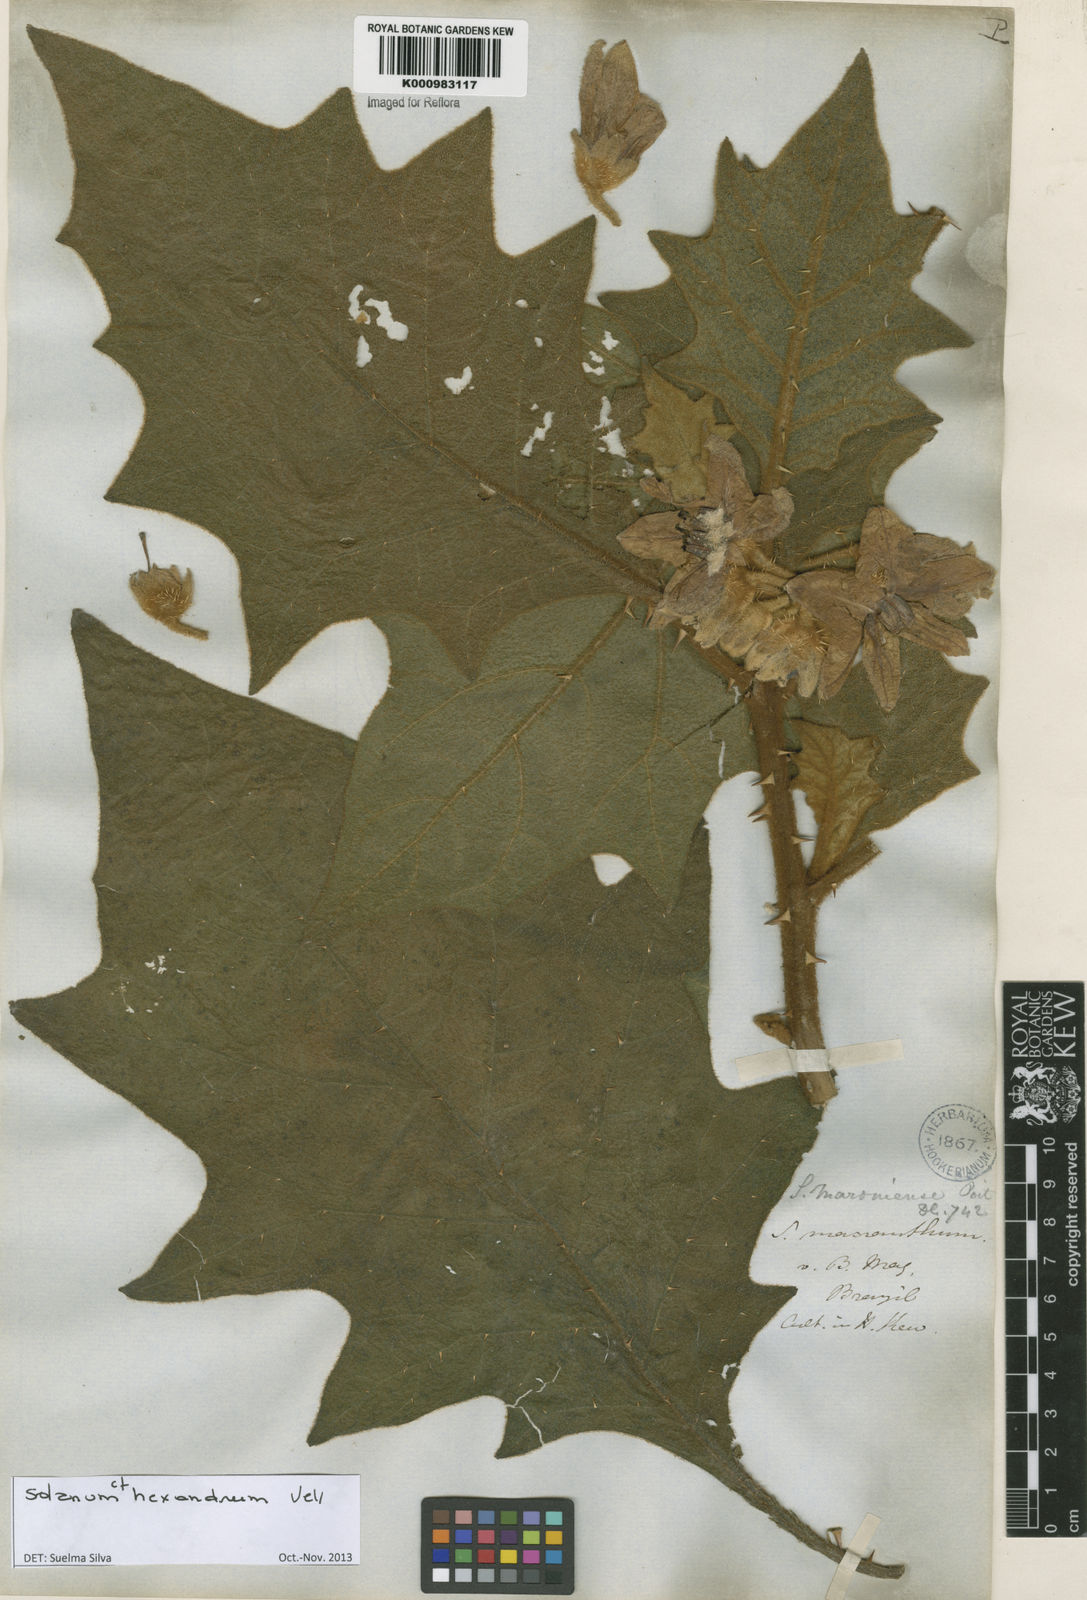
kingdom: Plantae
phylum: Tracheophyta
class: Magnoliopsida
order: Solanales
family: Solanaceae
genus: Solanum
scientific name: Solanum hexandrum
